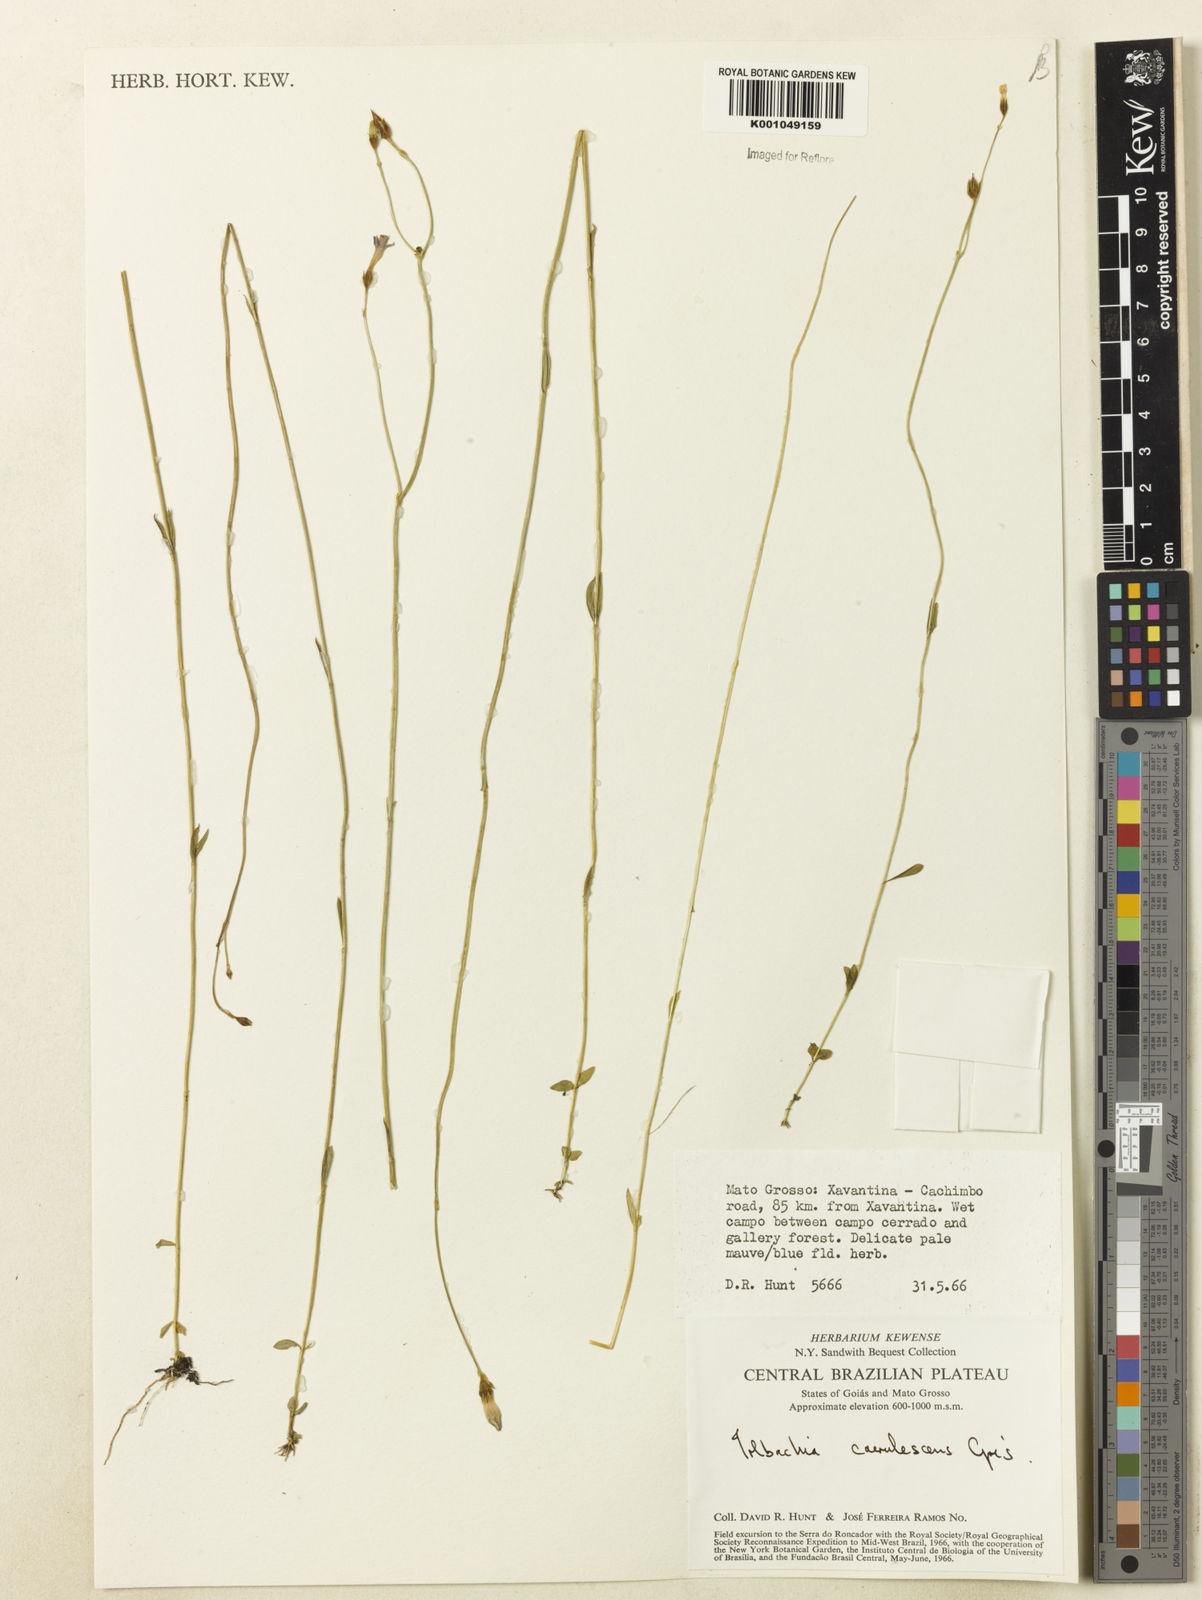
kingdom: Plantae
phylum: Tracheophyta
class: Magnoliopsida
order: Gentianales
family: Gentianaceae
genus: Tetrapollinia
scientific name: Tetrapollinia caerulescens
